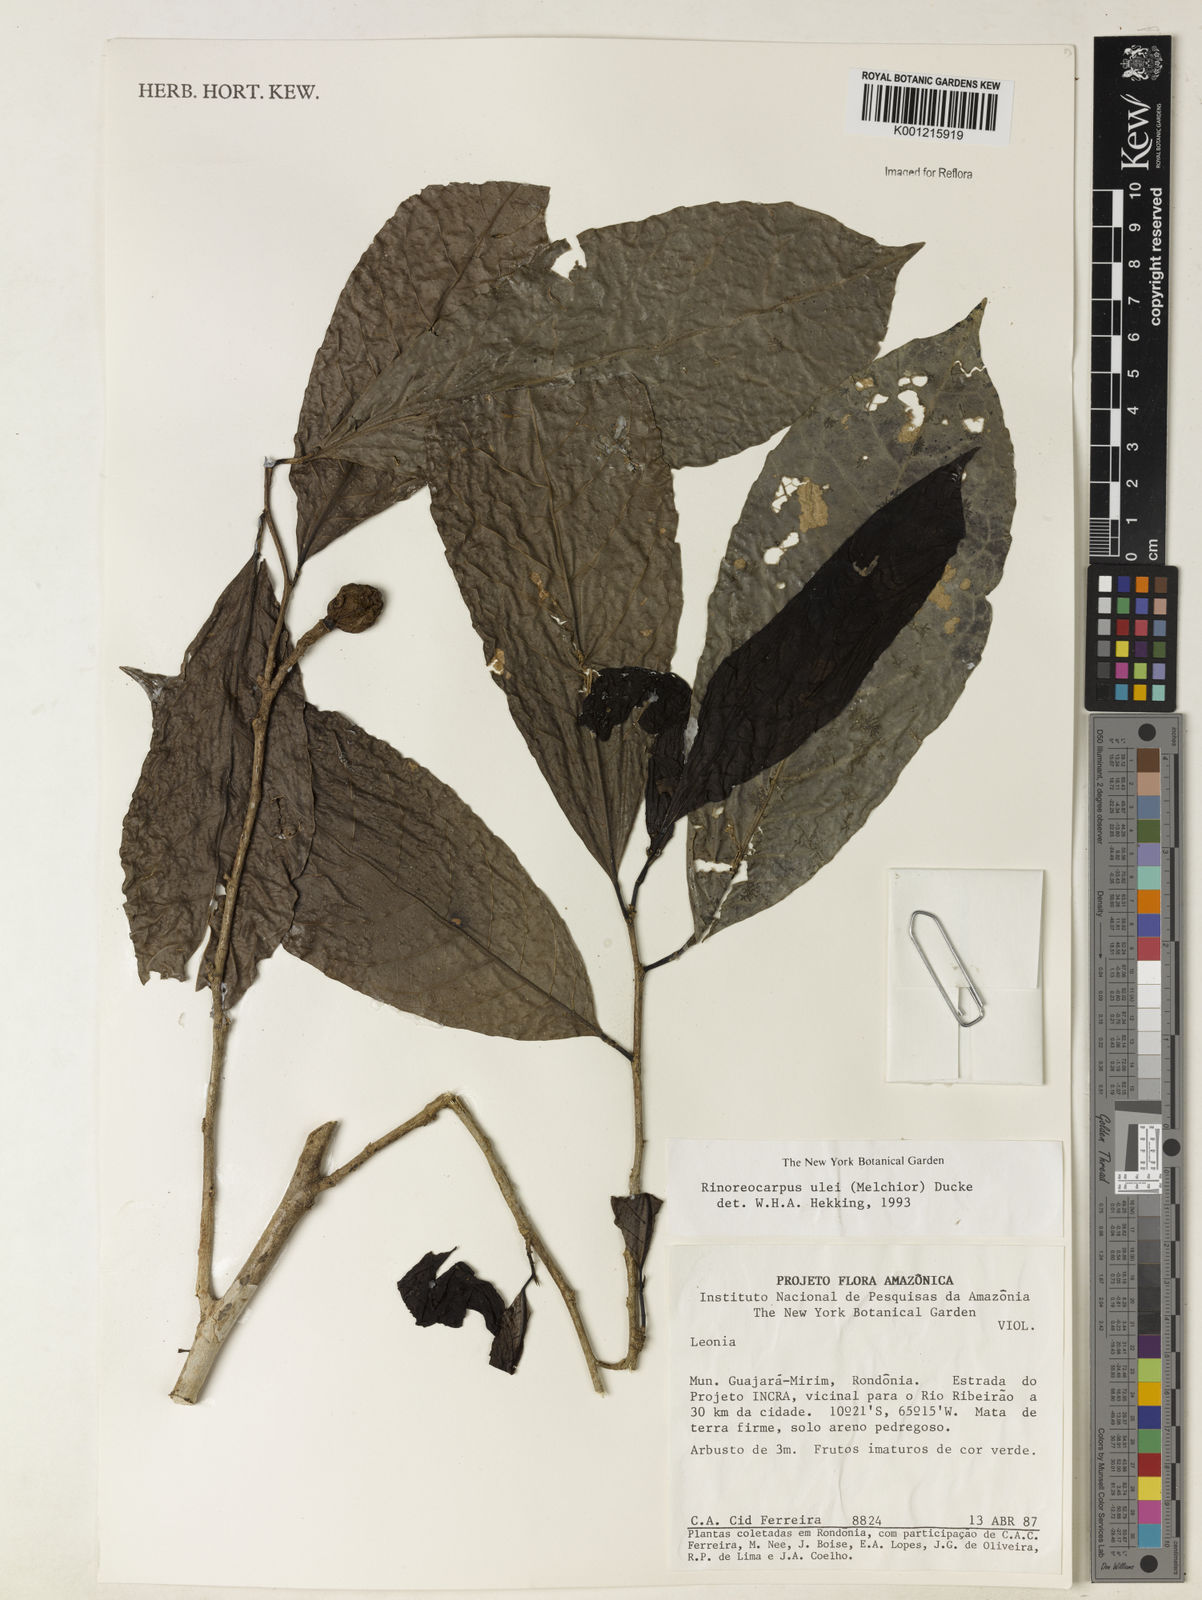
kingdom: Plantae
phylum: Tracheophyta
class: Magnoliopsida
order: Malpighiales
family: Violaceae
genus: Rinorea
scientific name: Rinorea
